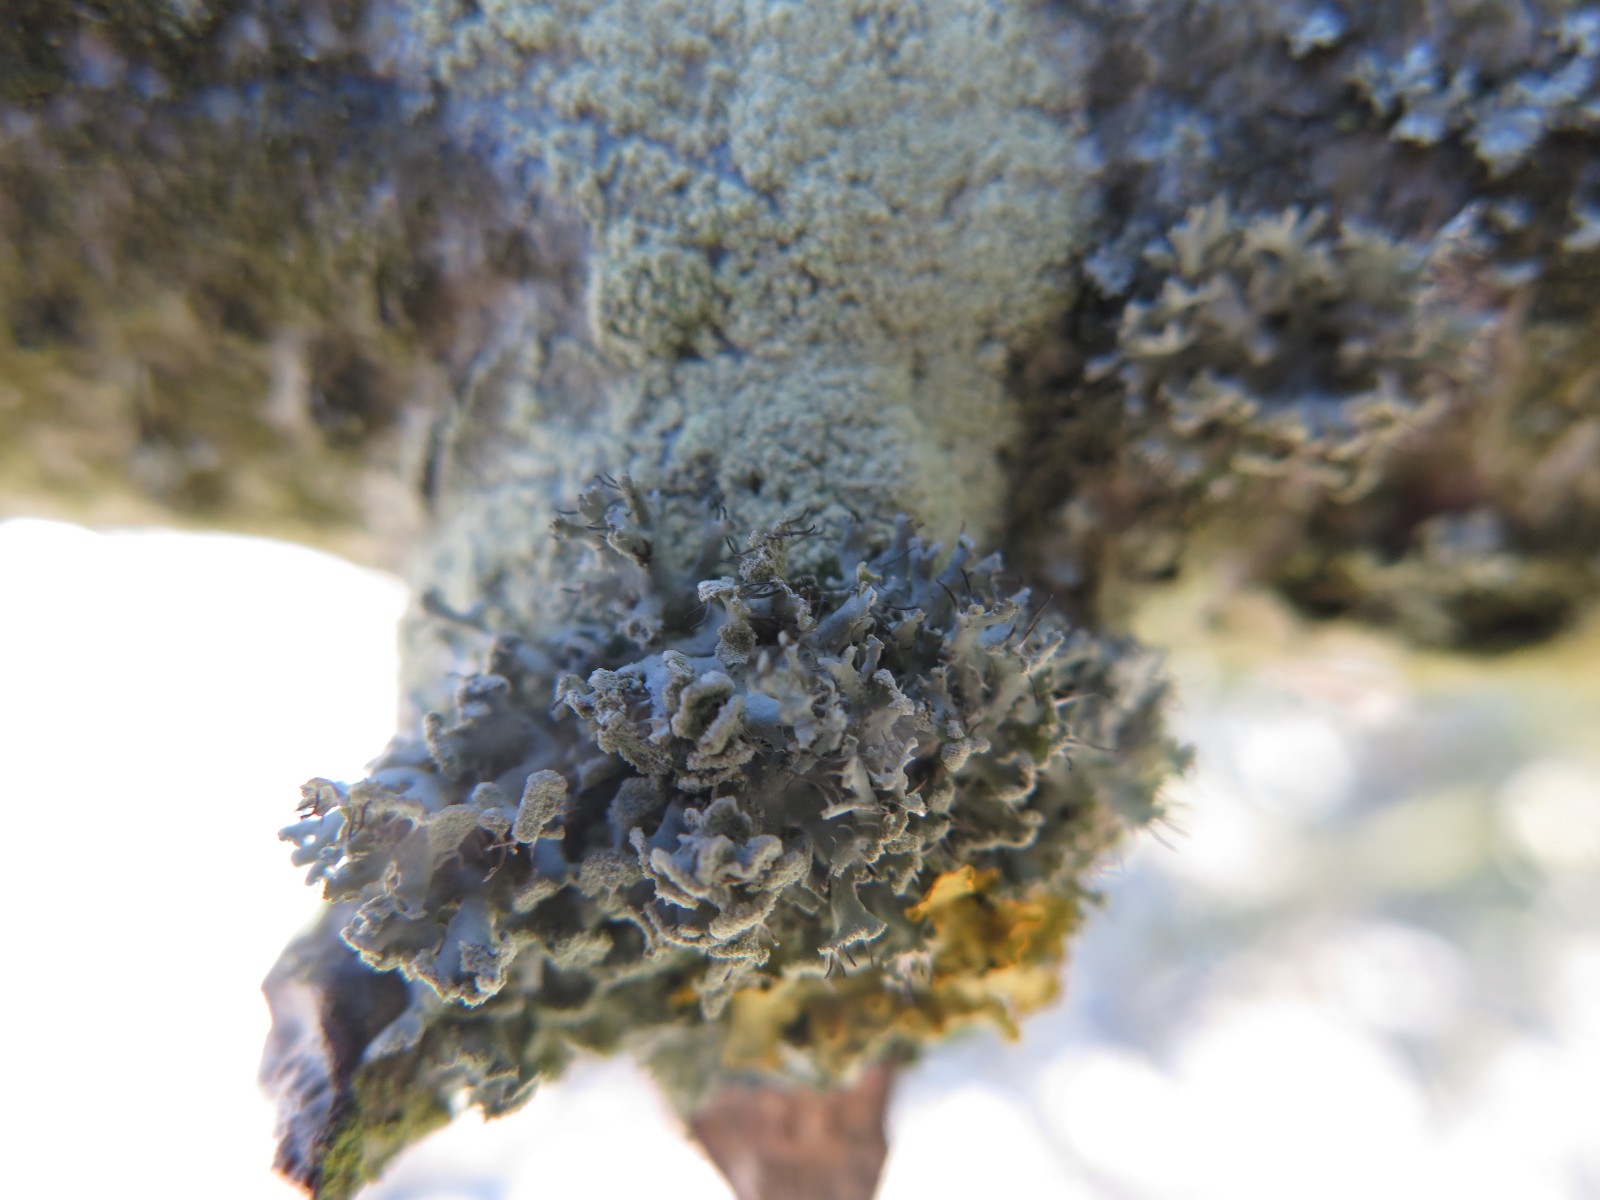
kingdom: Fungi
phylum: Ascomycota
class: Lecanoromycetes
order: Caliciales
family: Physciaceae
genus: Physcia
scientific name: Physcia tenella
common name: spæd rosetlav
